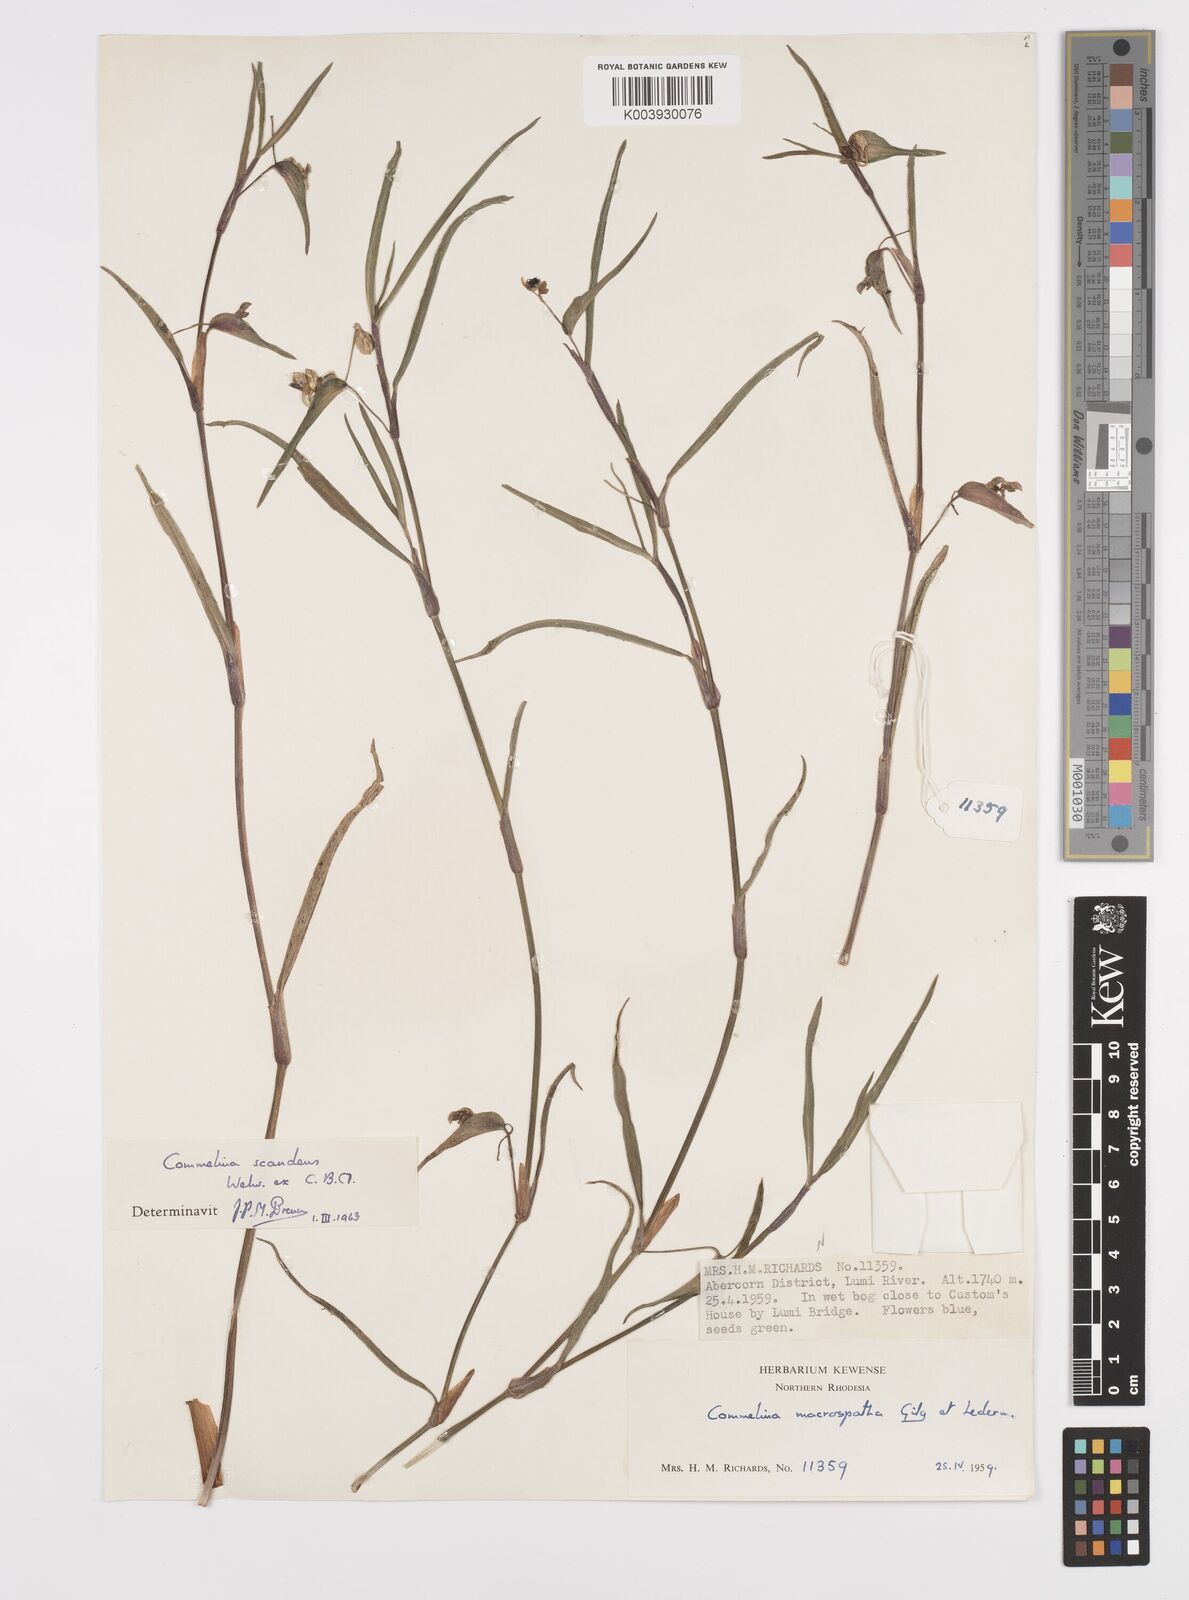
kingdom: Plantae
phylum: Tracheophyta
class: Liliopsida
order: Commelinales
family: Commelinaceae
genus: Commelina
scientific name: Commelina scandens
